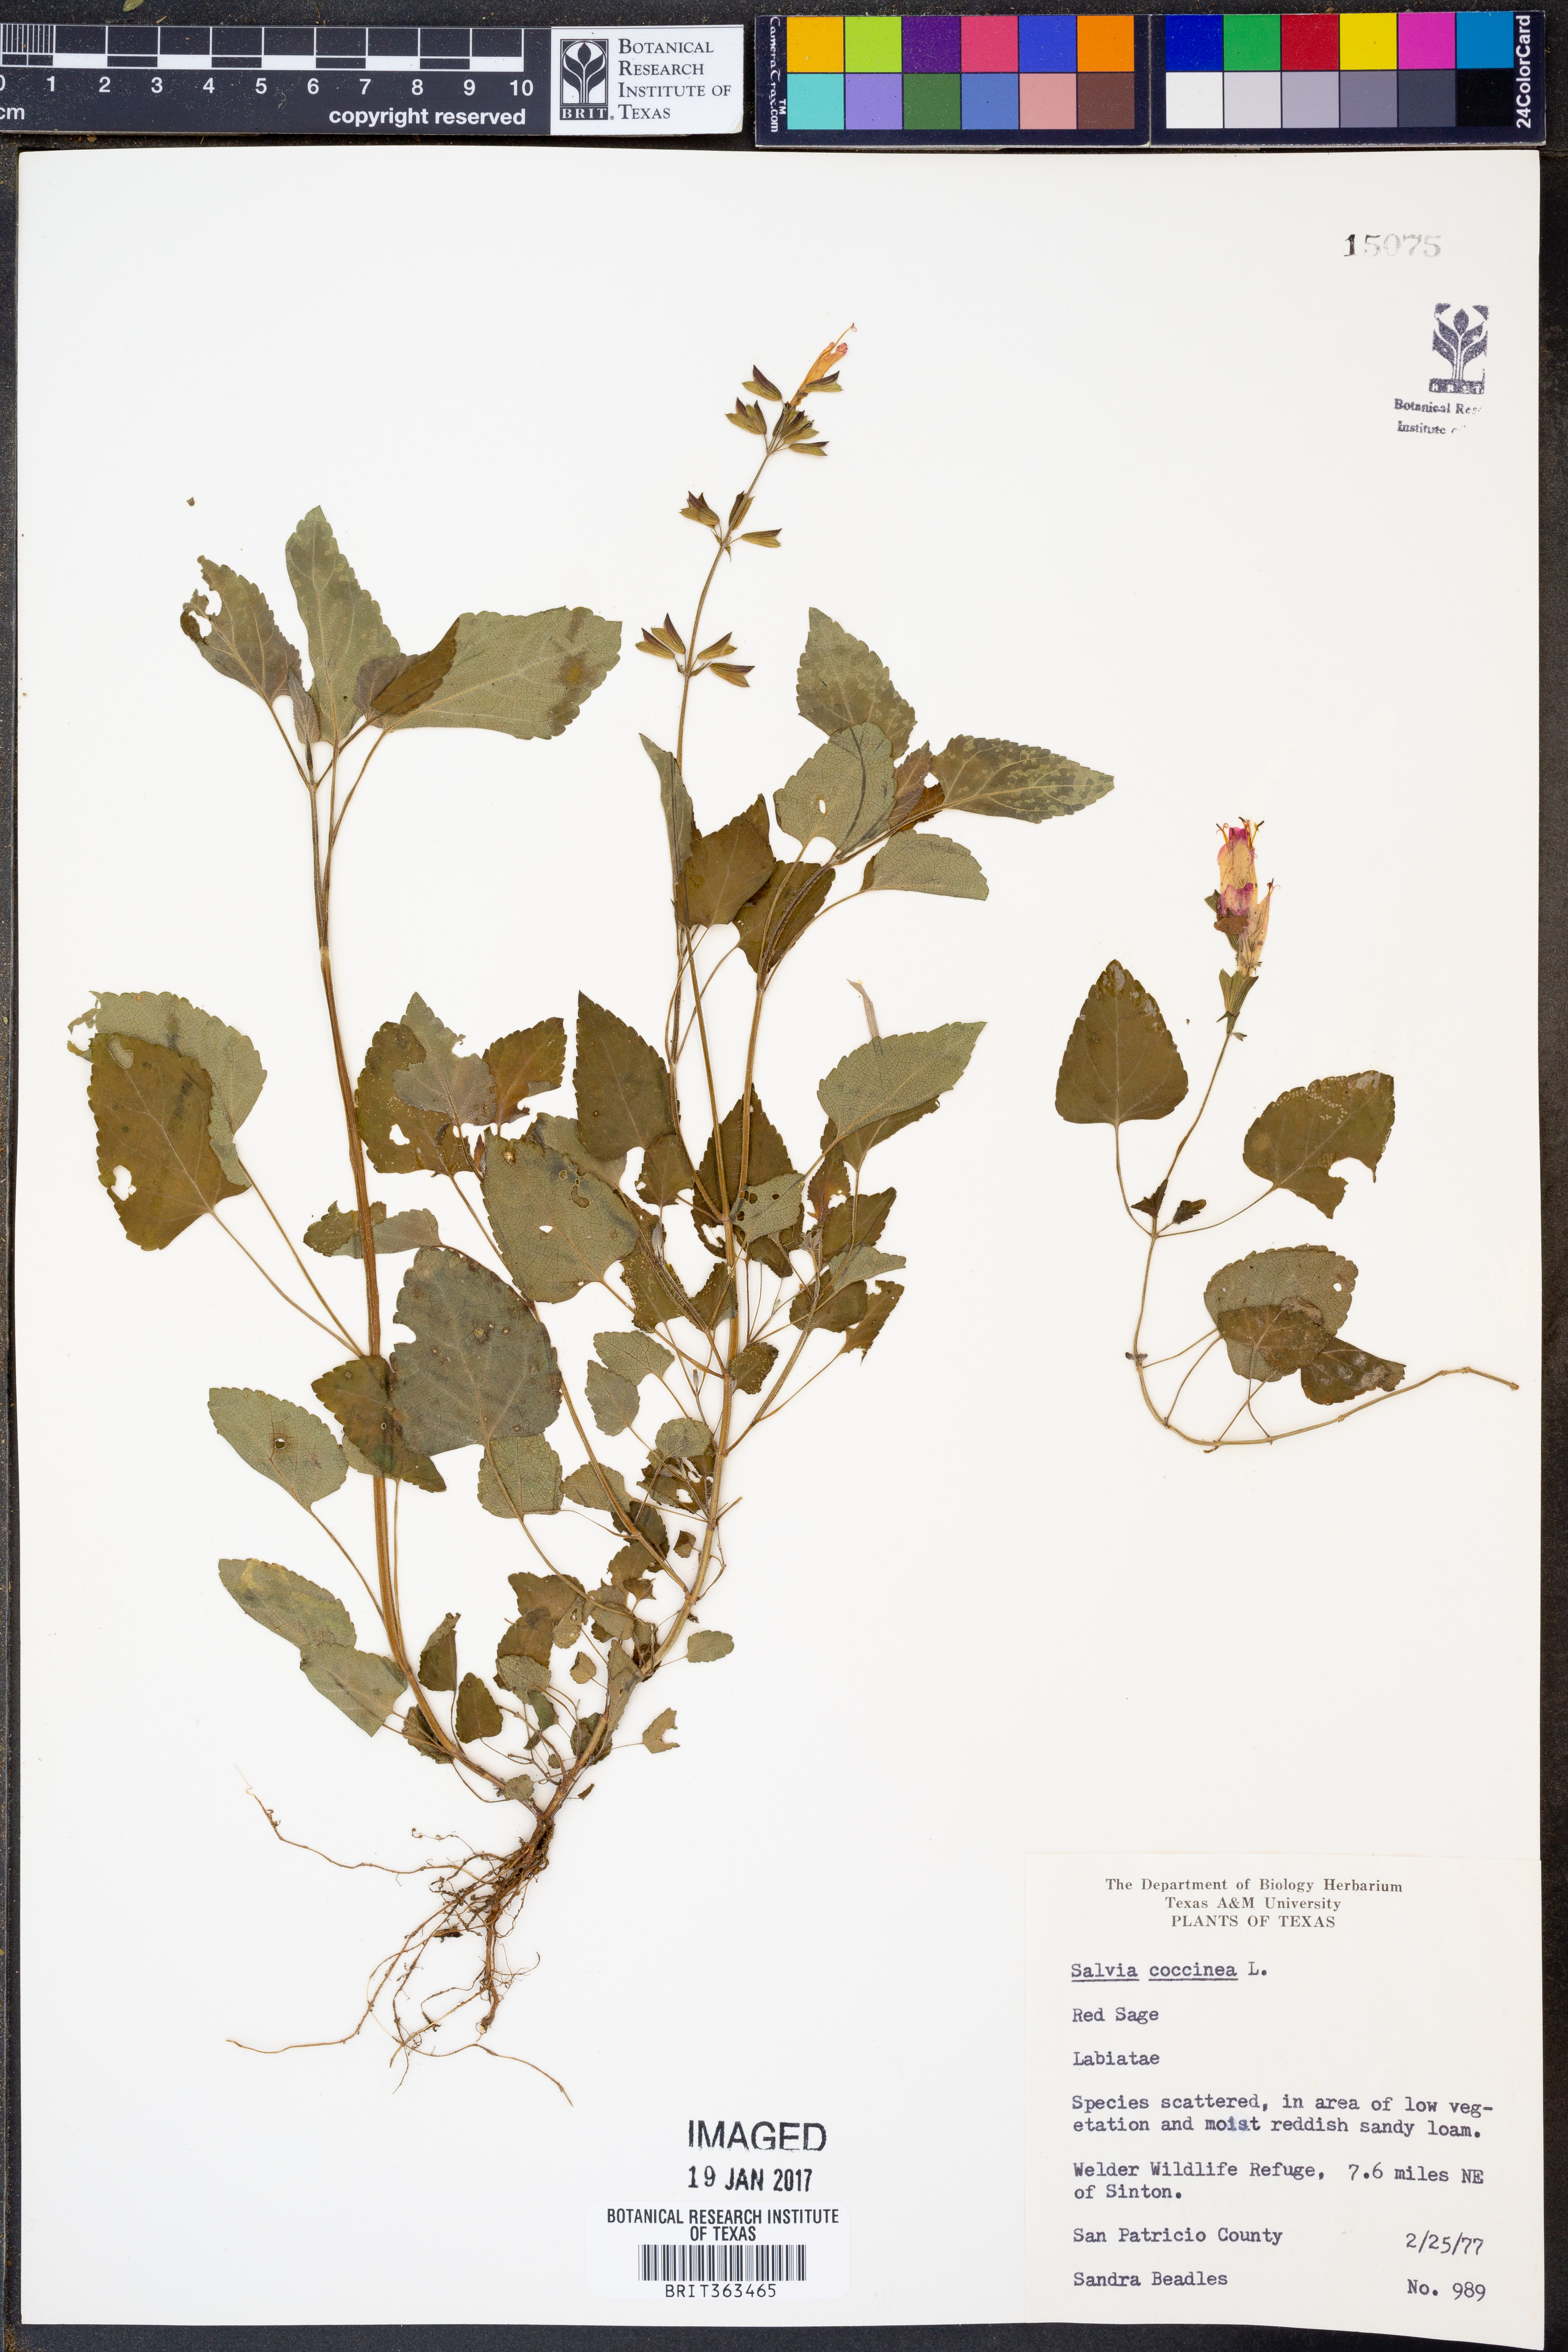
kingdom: Plantae
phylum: Tracheophyta
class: Magnoliopsida
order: Lamiales
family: Lamiaceae
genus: Salvia
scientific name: Salvia coccinea
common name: Blood sage
